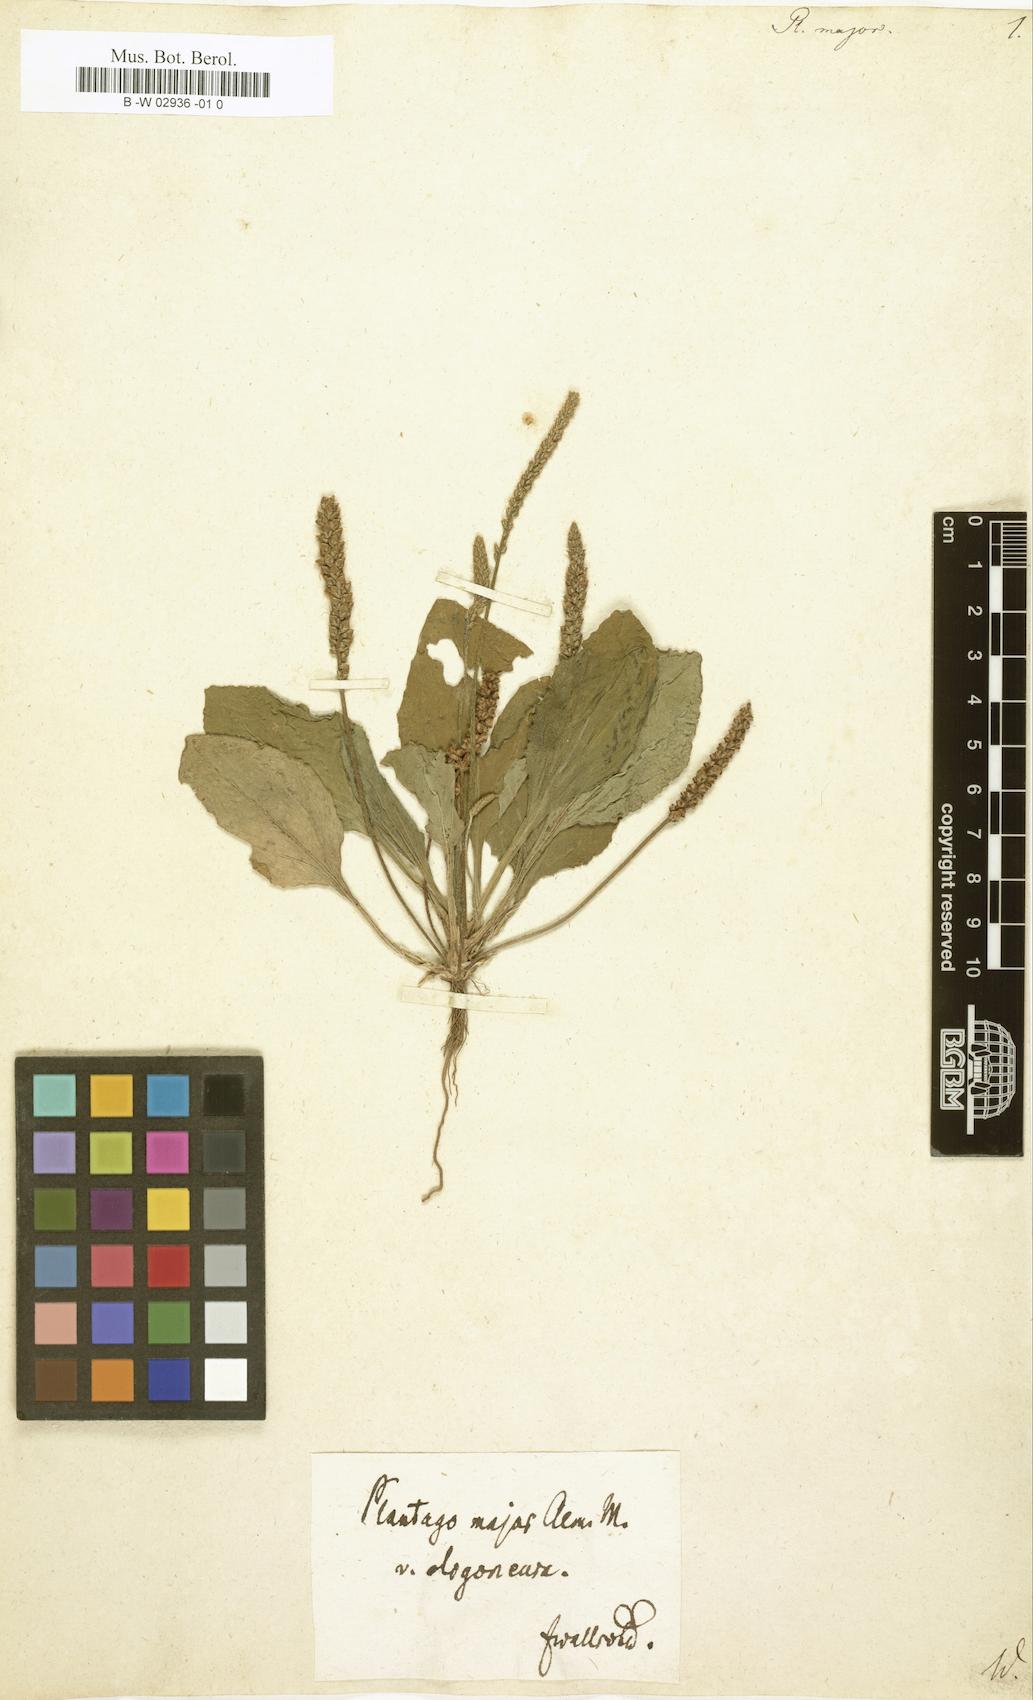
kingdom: Plantae
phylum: Tracheophyta
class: Magnoliopsida
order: Lamiales
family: Plantaginaceae
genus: Plantago
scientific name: Plantago major
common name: Common plantain
